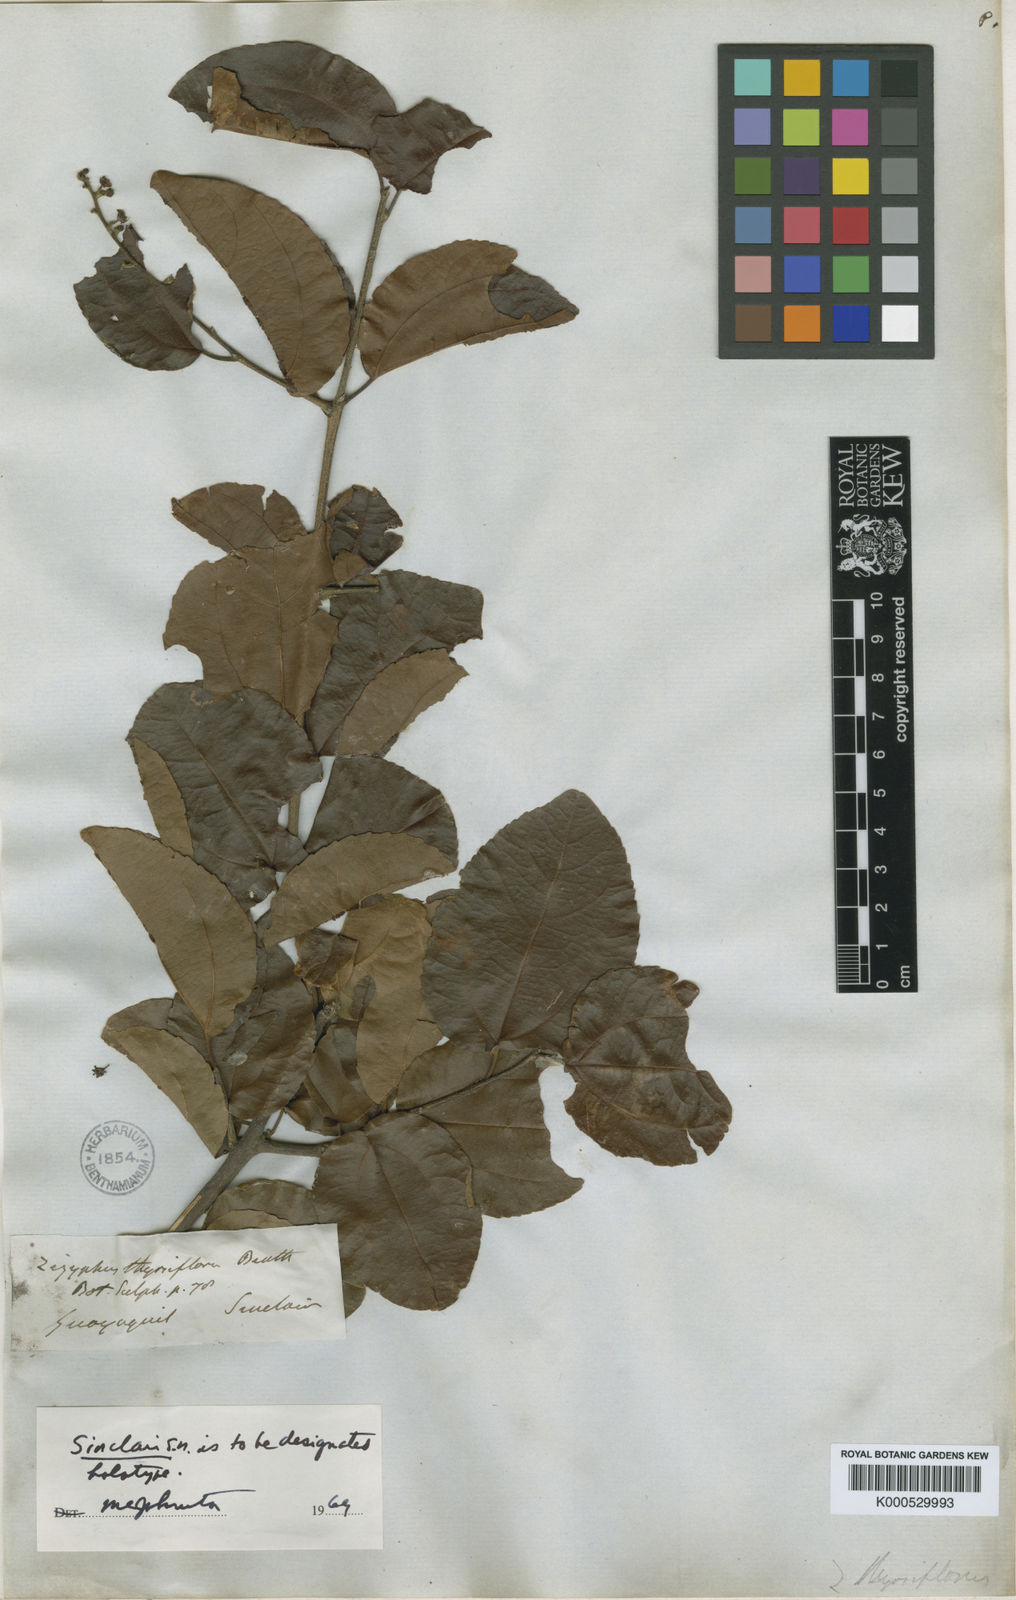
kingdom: Plantae
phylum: Tracheophyta
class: Magnoliopsida
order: Rosales
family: Rhamnaceae
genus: Sarcomphalus
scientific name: Sarcomphalus thyrsiflorus
